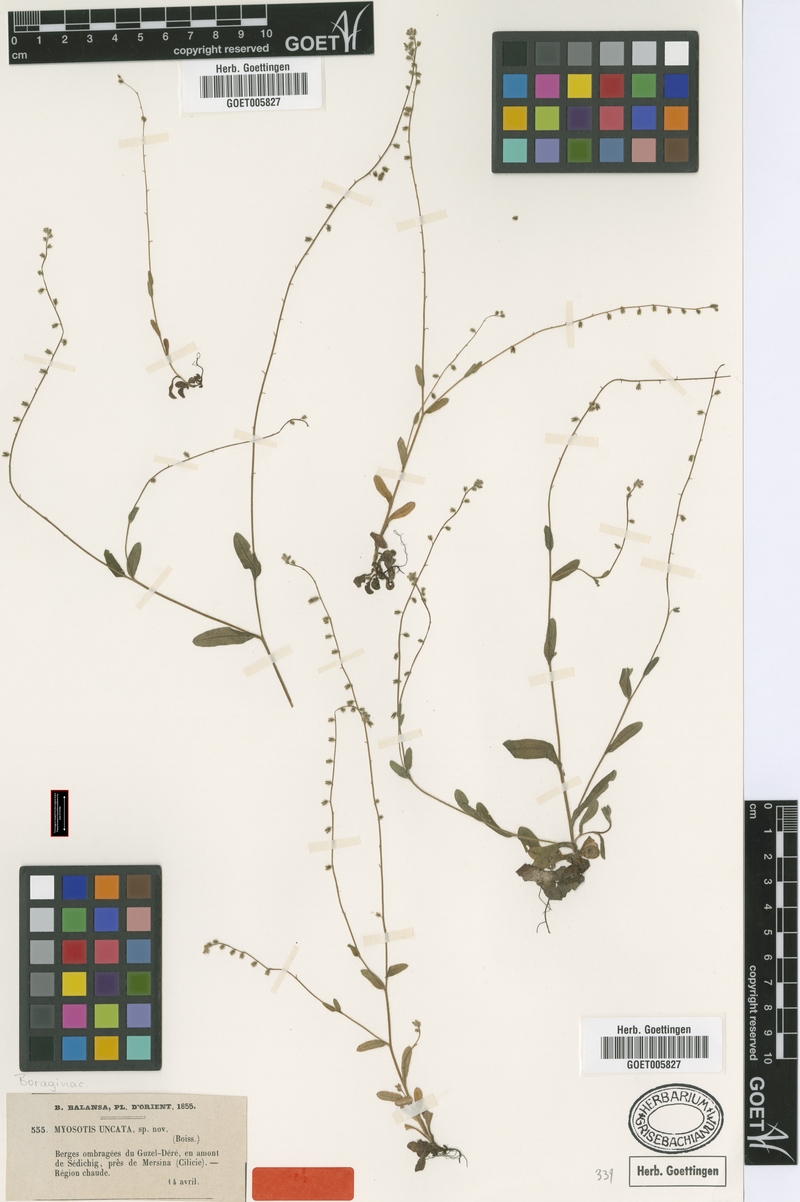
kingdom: Plantae
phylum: Tracheophyta
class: Magnoliopsida
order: Boraginales
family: Boraginaceae
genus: Myosotis
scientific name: Myosotis ramosissima
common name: Early forget-me-not
